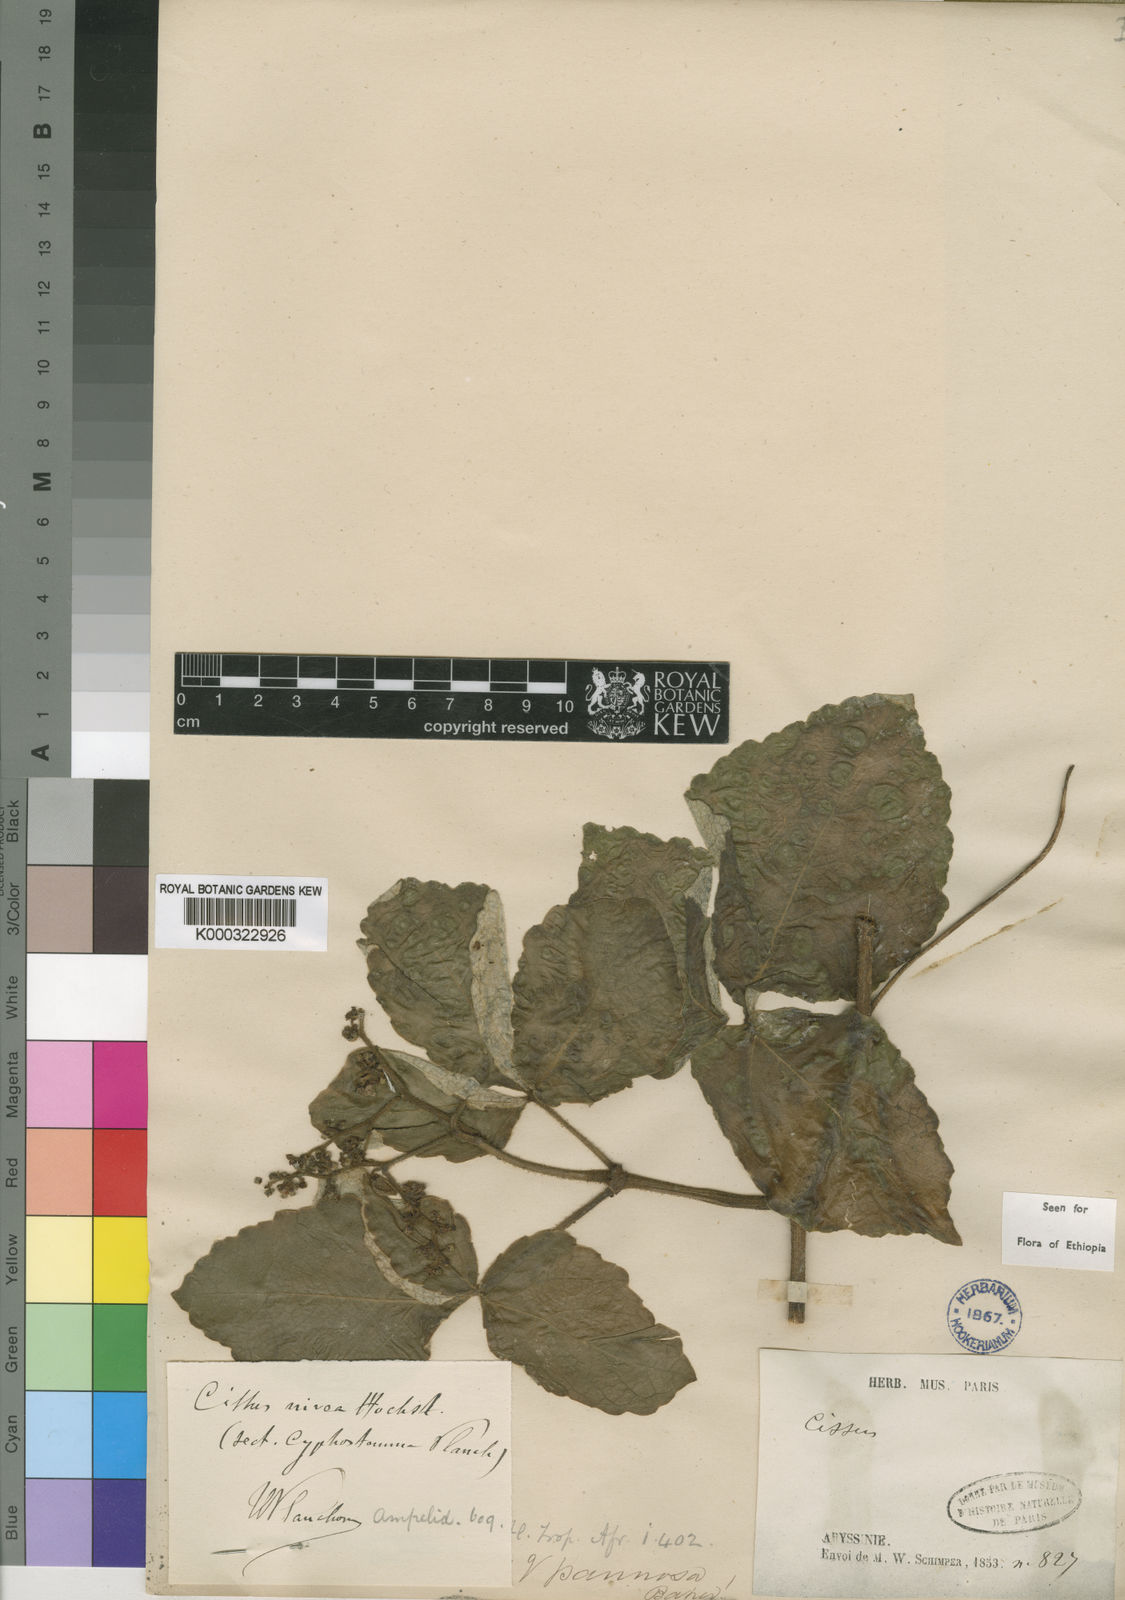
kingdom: Plantae
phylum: Tracheophyta
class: Magnoliopsida
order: Vitales
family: Vitaceae
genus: Cyphostemma
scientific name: Cyphostemma niveum
